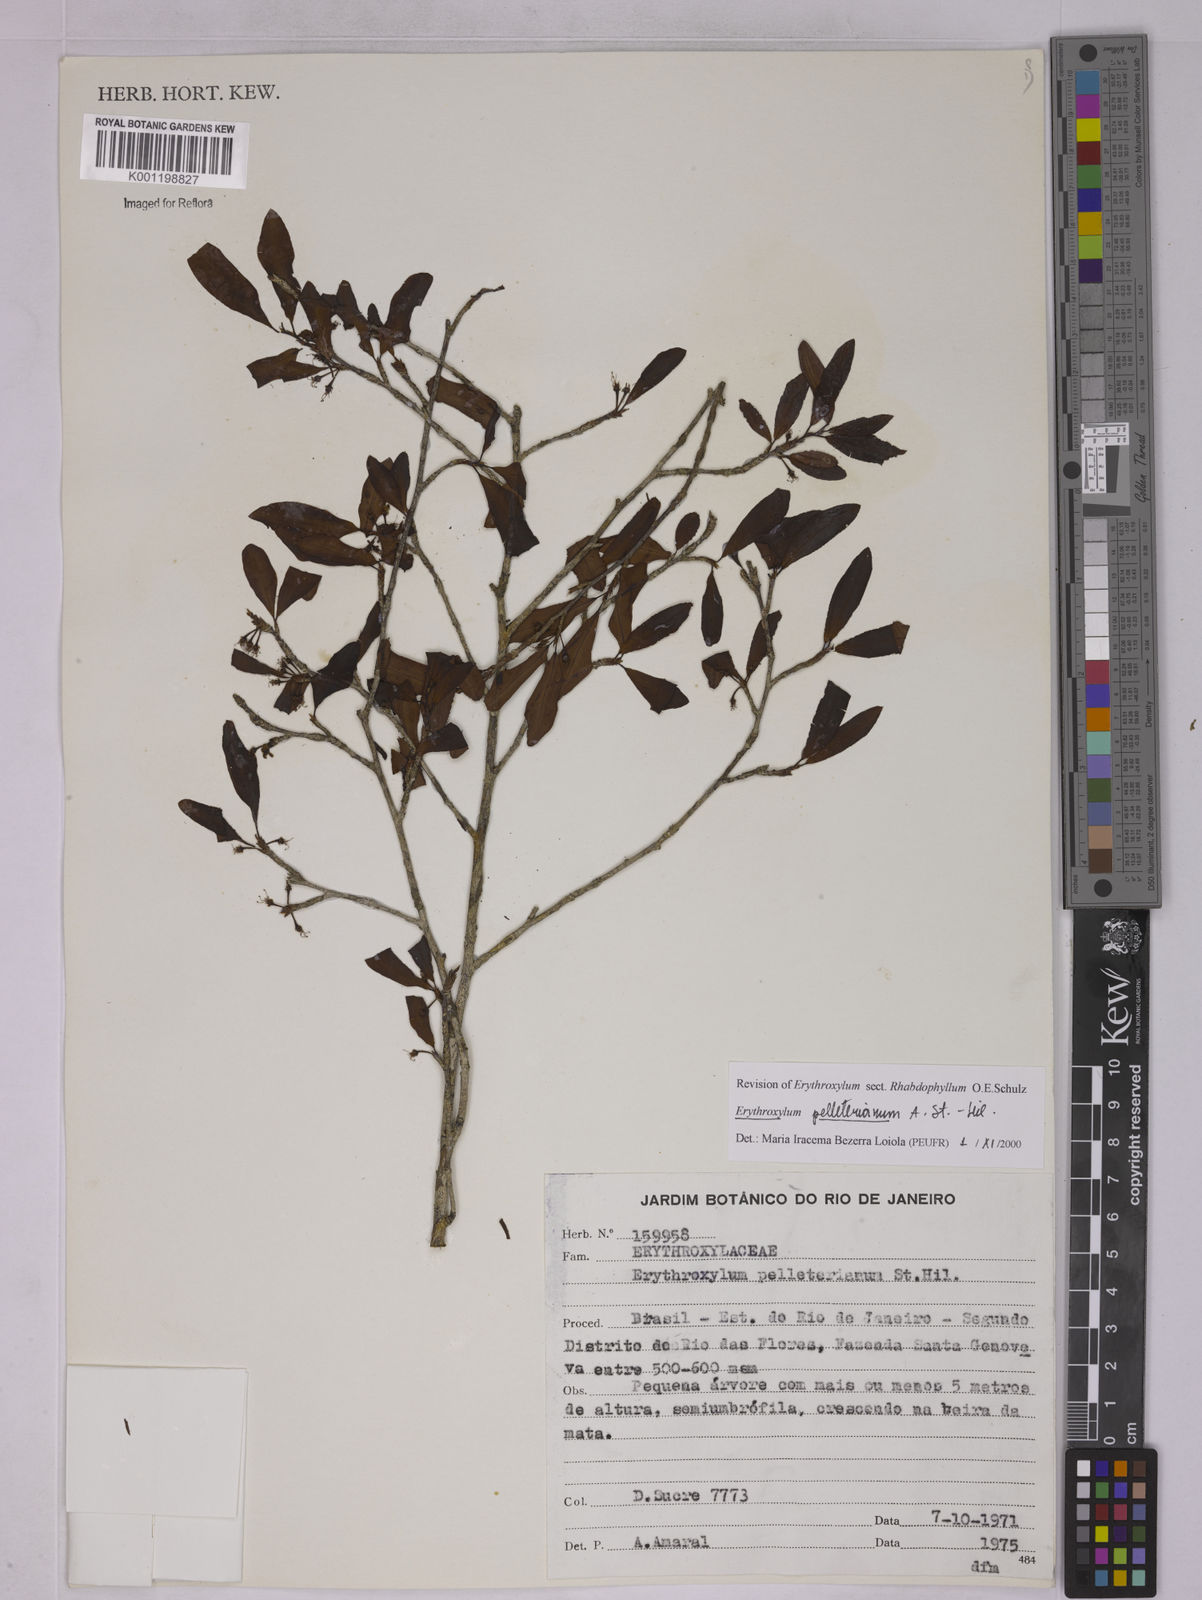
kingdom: Plantae
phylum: Tracheophyta
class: Magnoliopsida
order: Malpighiales
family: Erythroxylaceae
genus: Erythroxylum
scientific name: Erythroxylum pelleterianum
